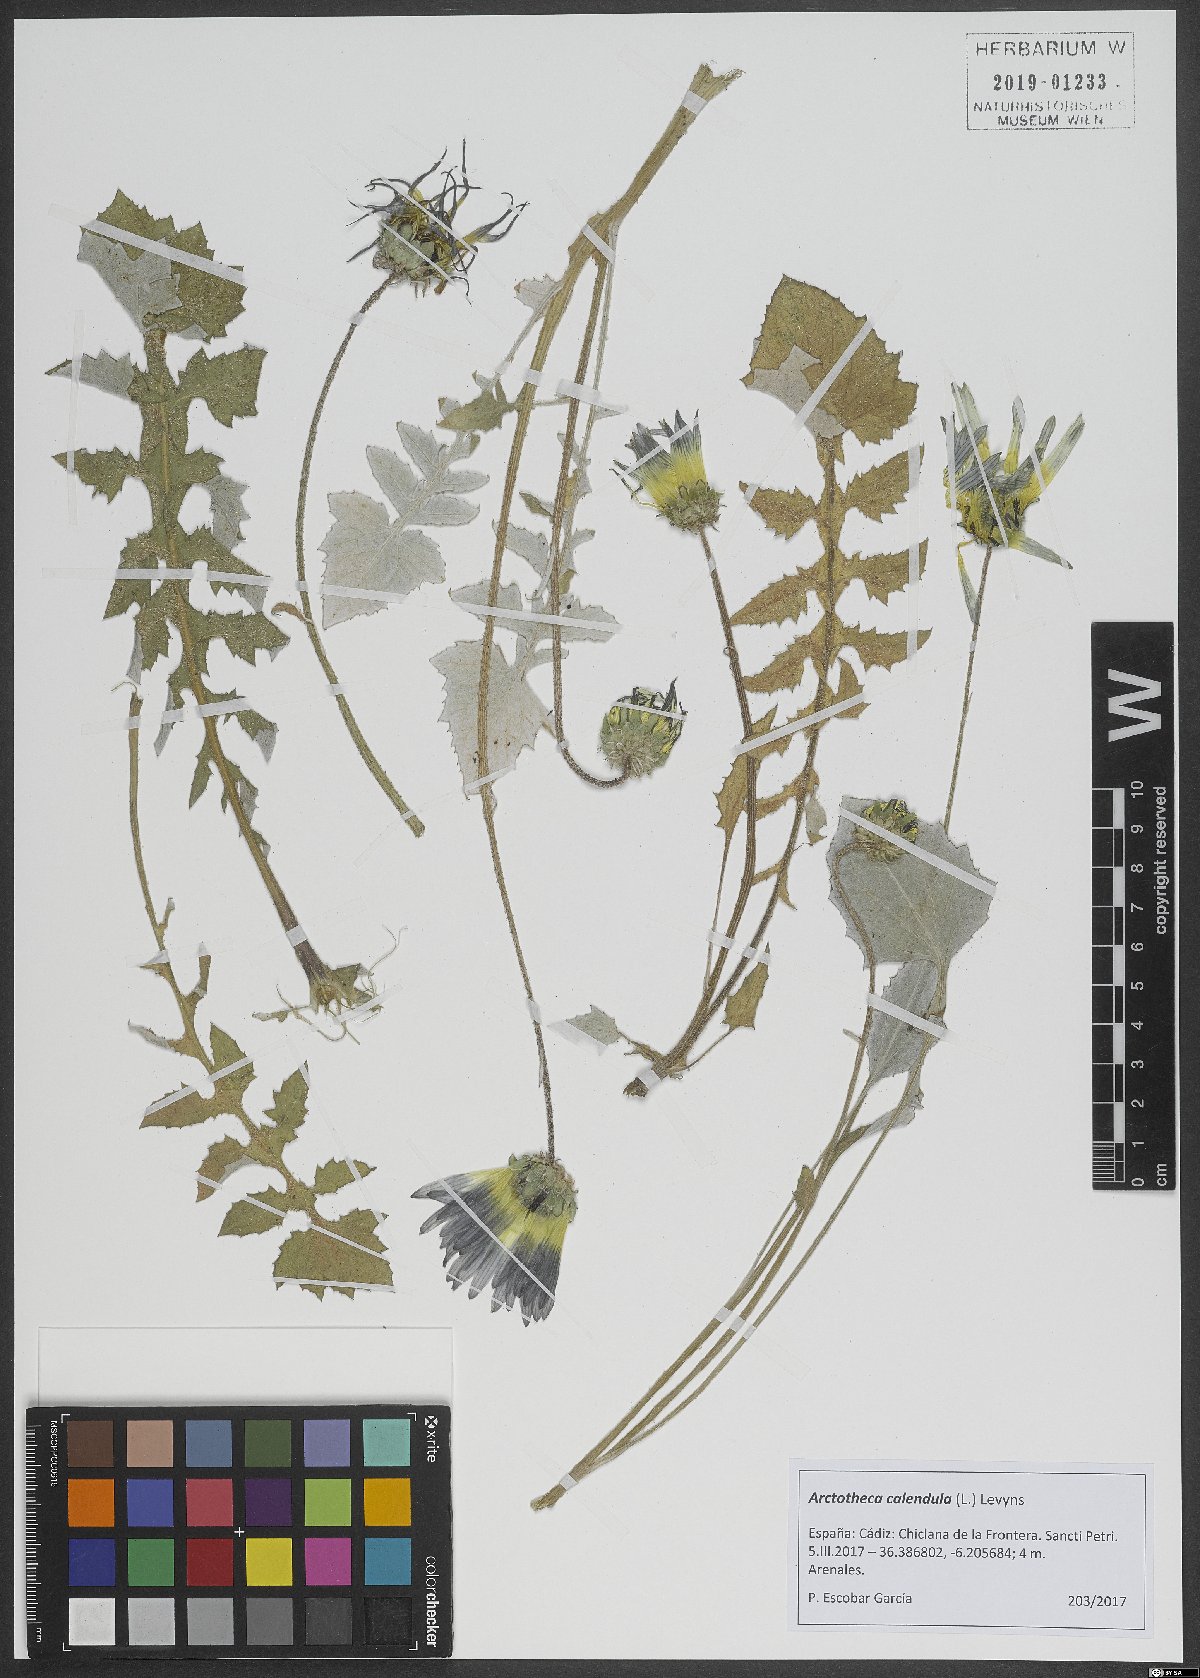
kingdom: Plantae
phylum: Tracheophyta
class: Magnoliopsida
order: Asterales
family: Asteraceae
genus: Arctotheca
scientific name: Arctotheca calendula
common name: Capeweed
